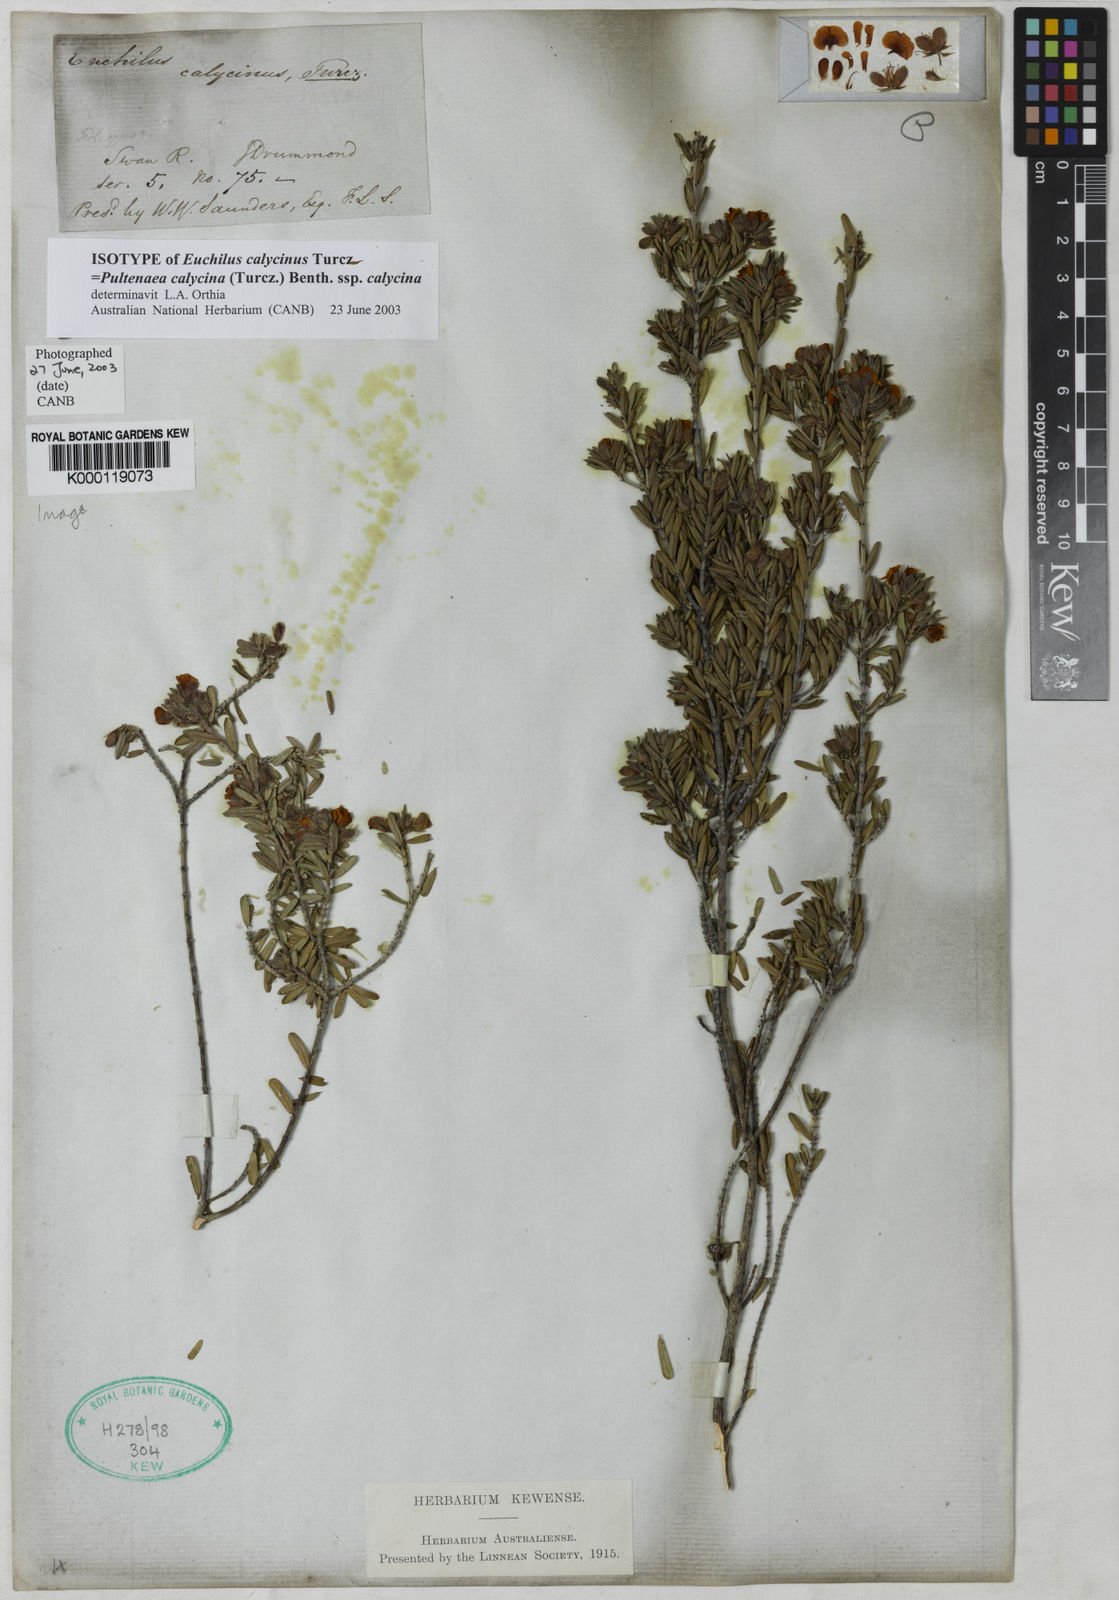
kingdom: Plantae
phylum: Tracheophyta
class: Magnoliopsida
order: Fabales
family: Fabaceae
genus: Pultenaea
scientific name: Pultenaea calycina
